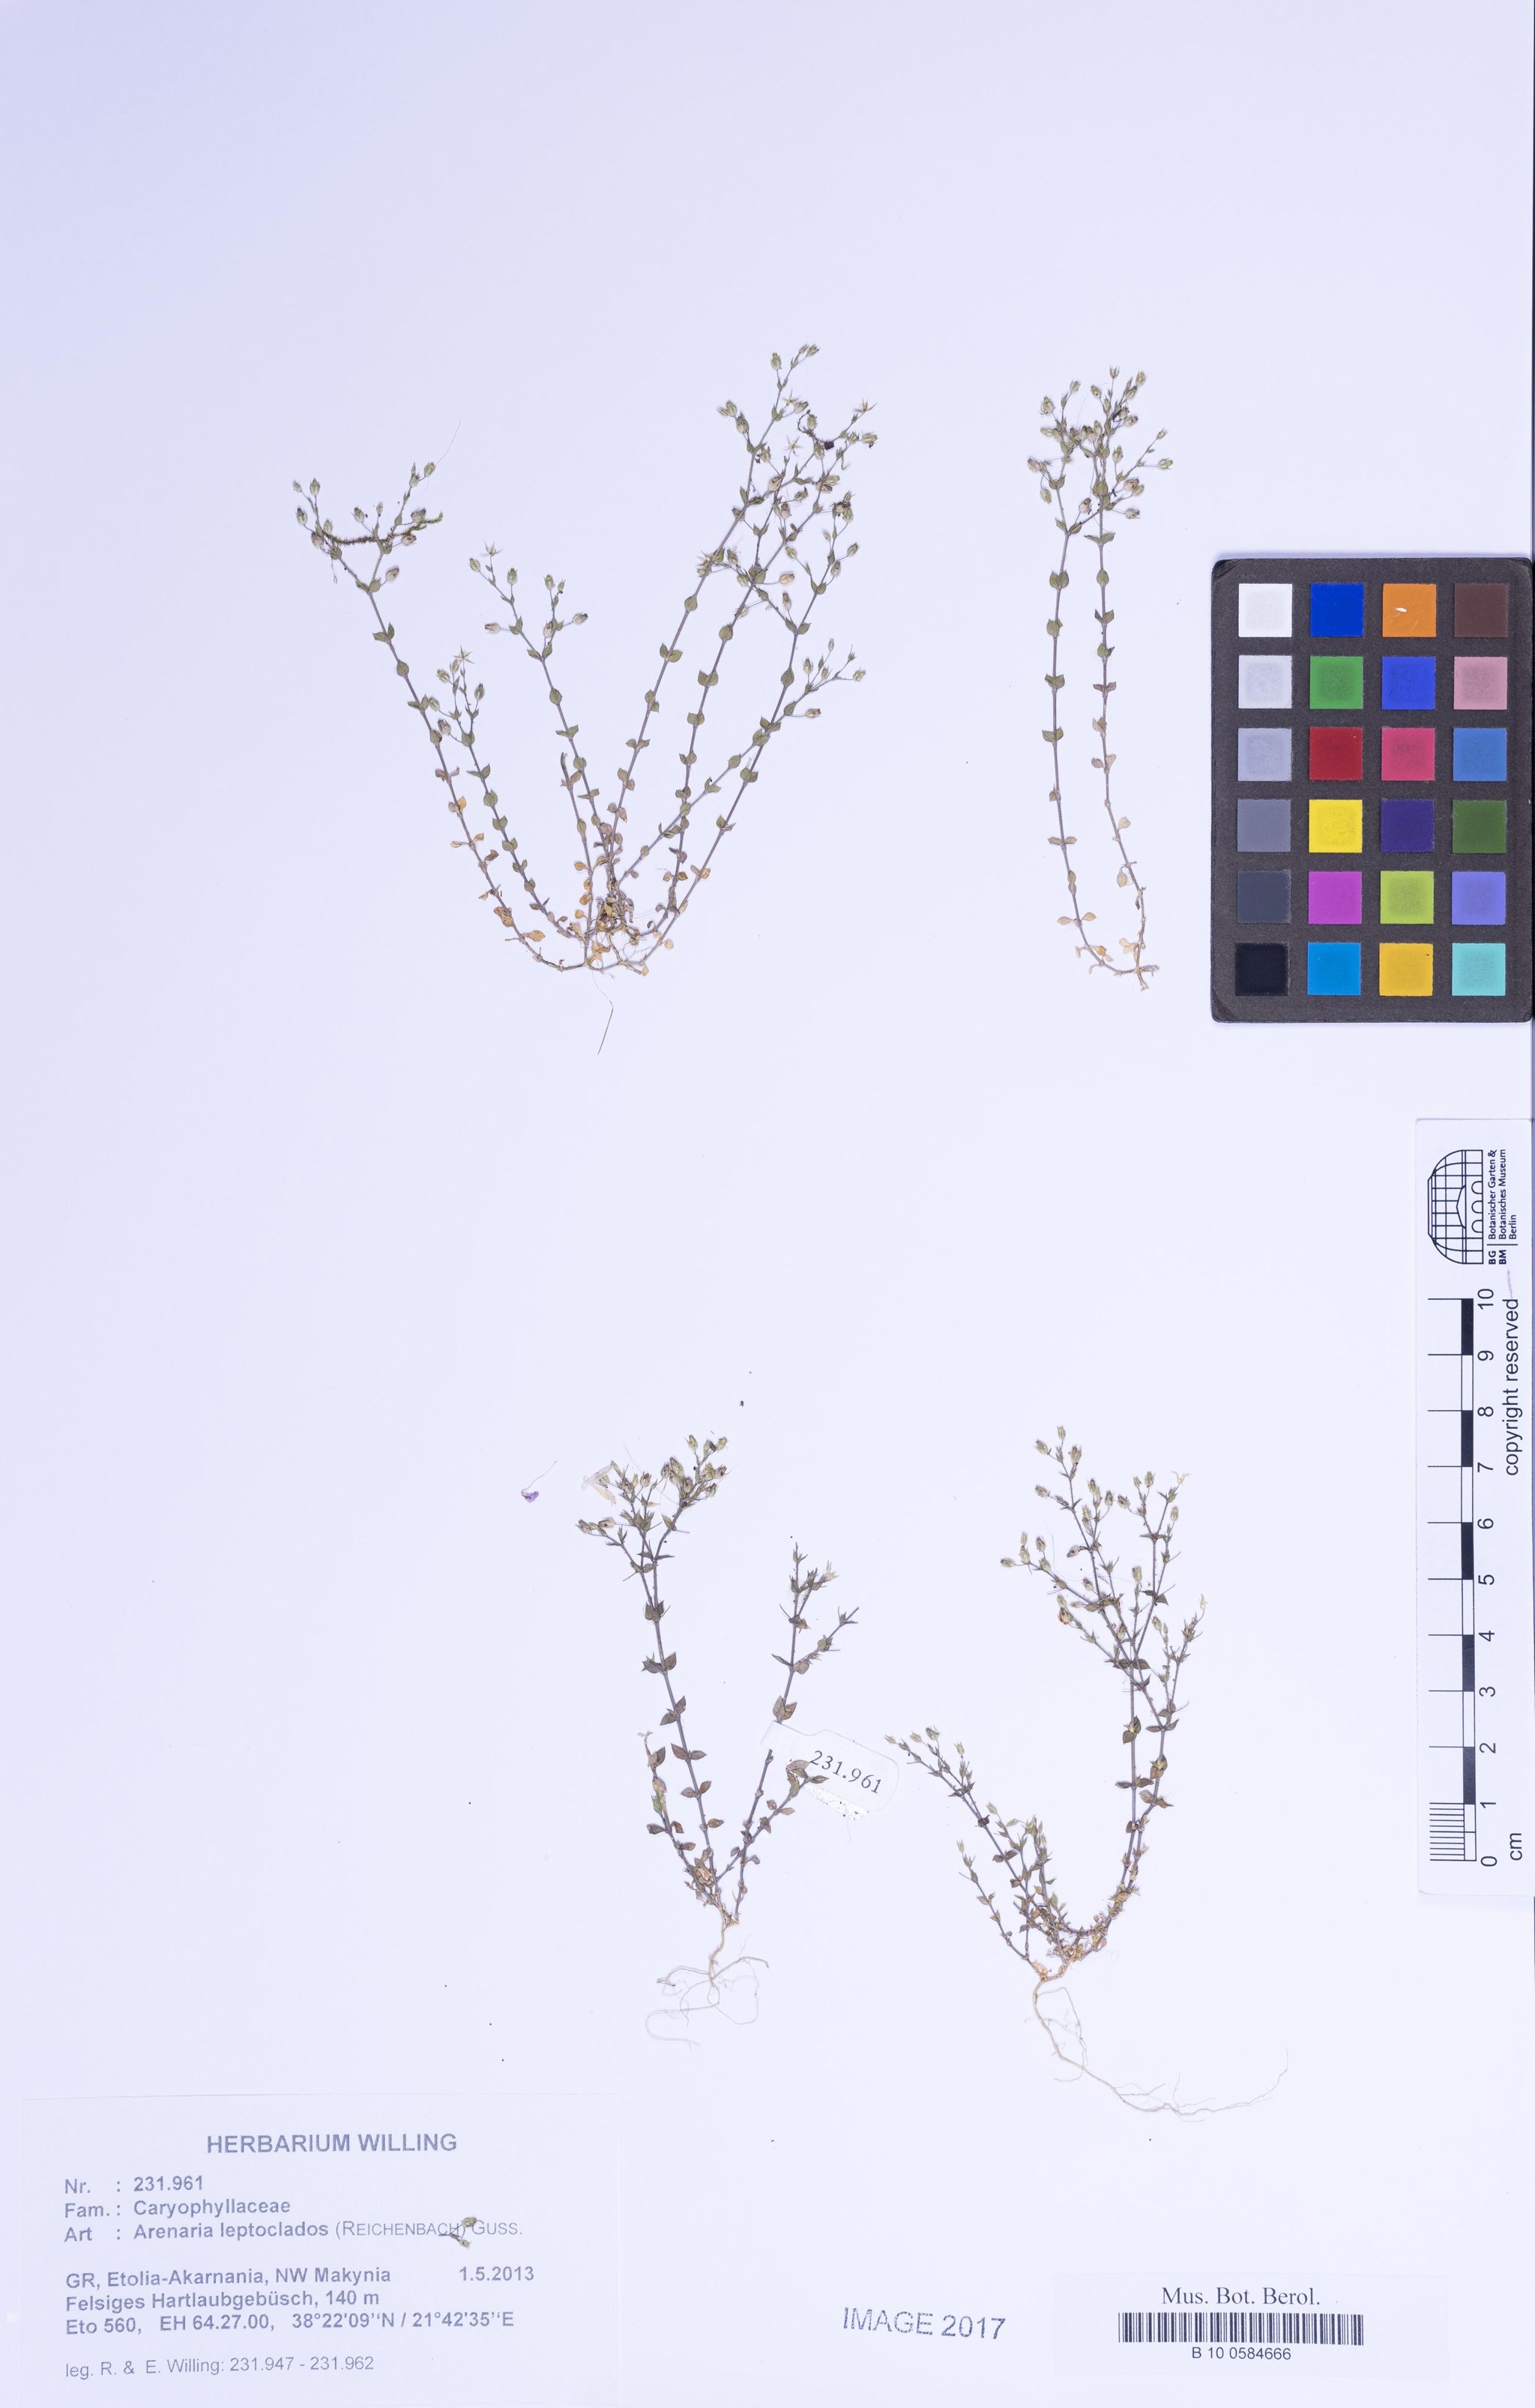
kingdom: Plantae
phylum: Tracheophyta
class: Magnoliopsida
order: Caryophyllales
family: Caryophyllaceae
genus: Arenaria
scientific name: Arenaria leptoclados
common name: Thyme-leaved sandwort
